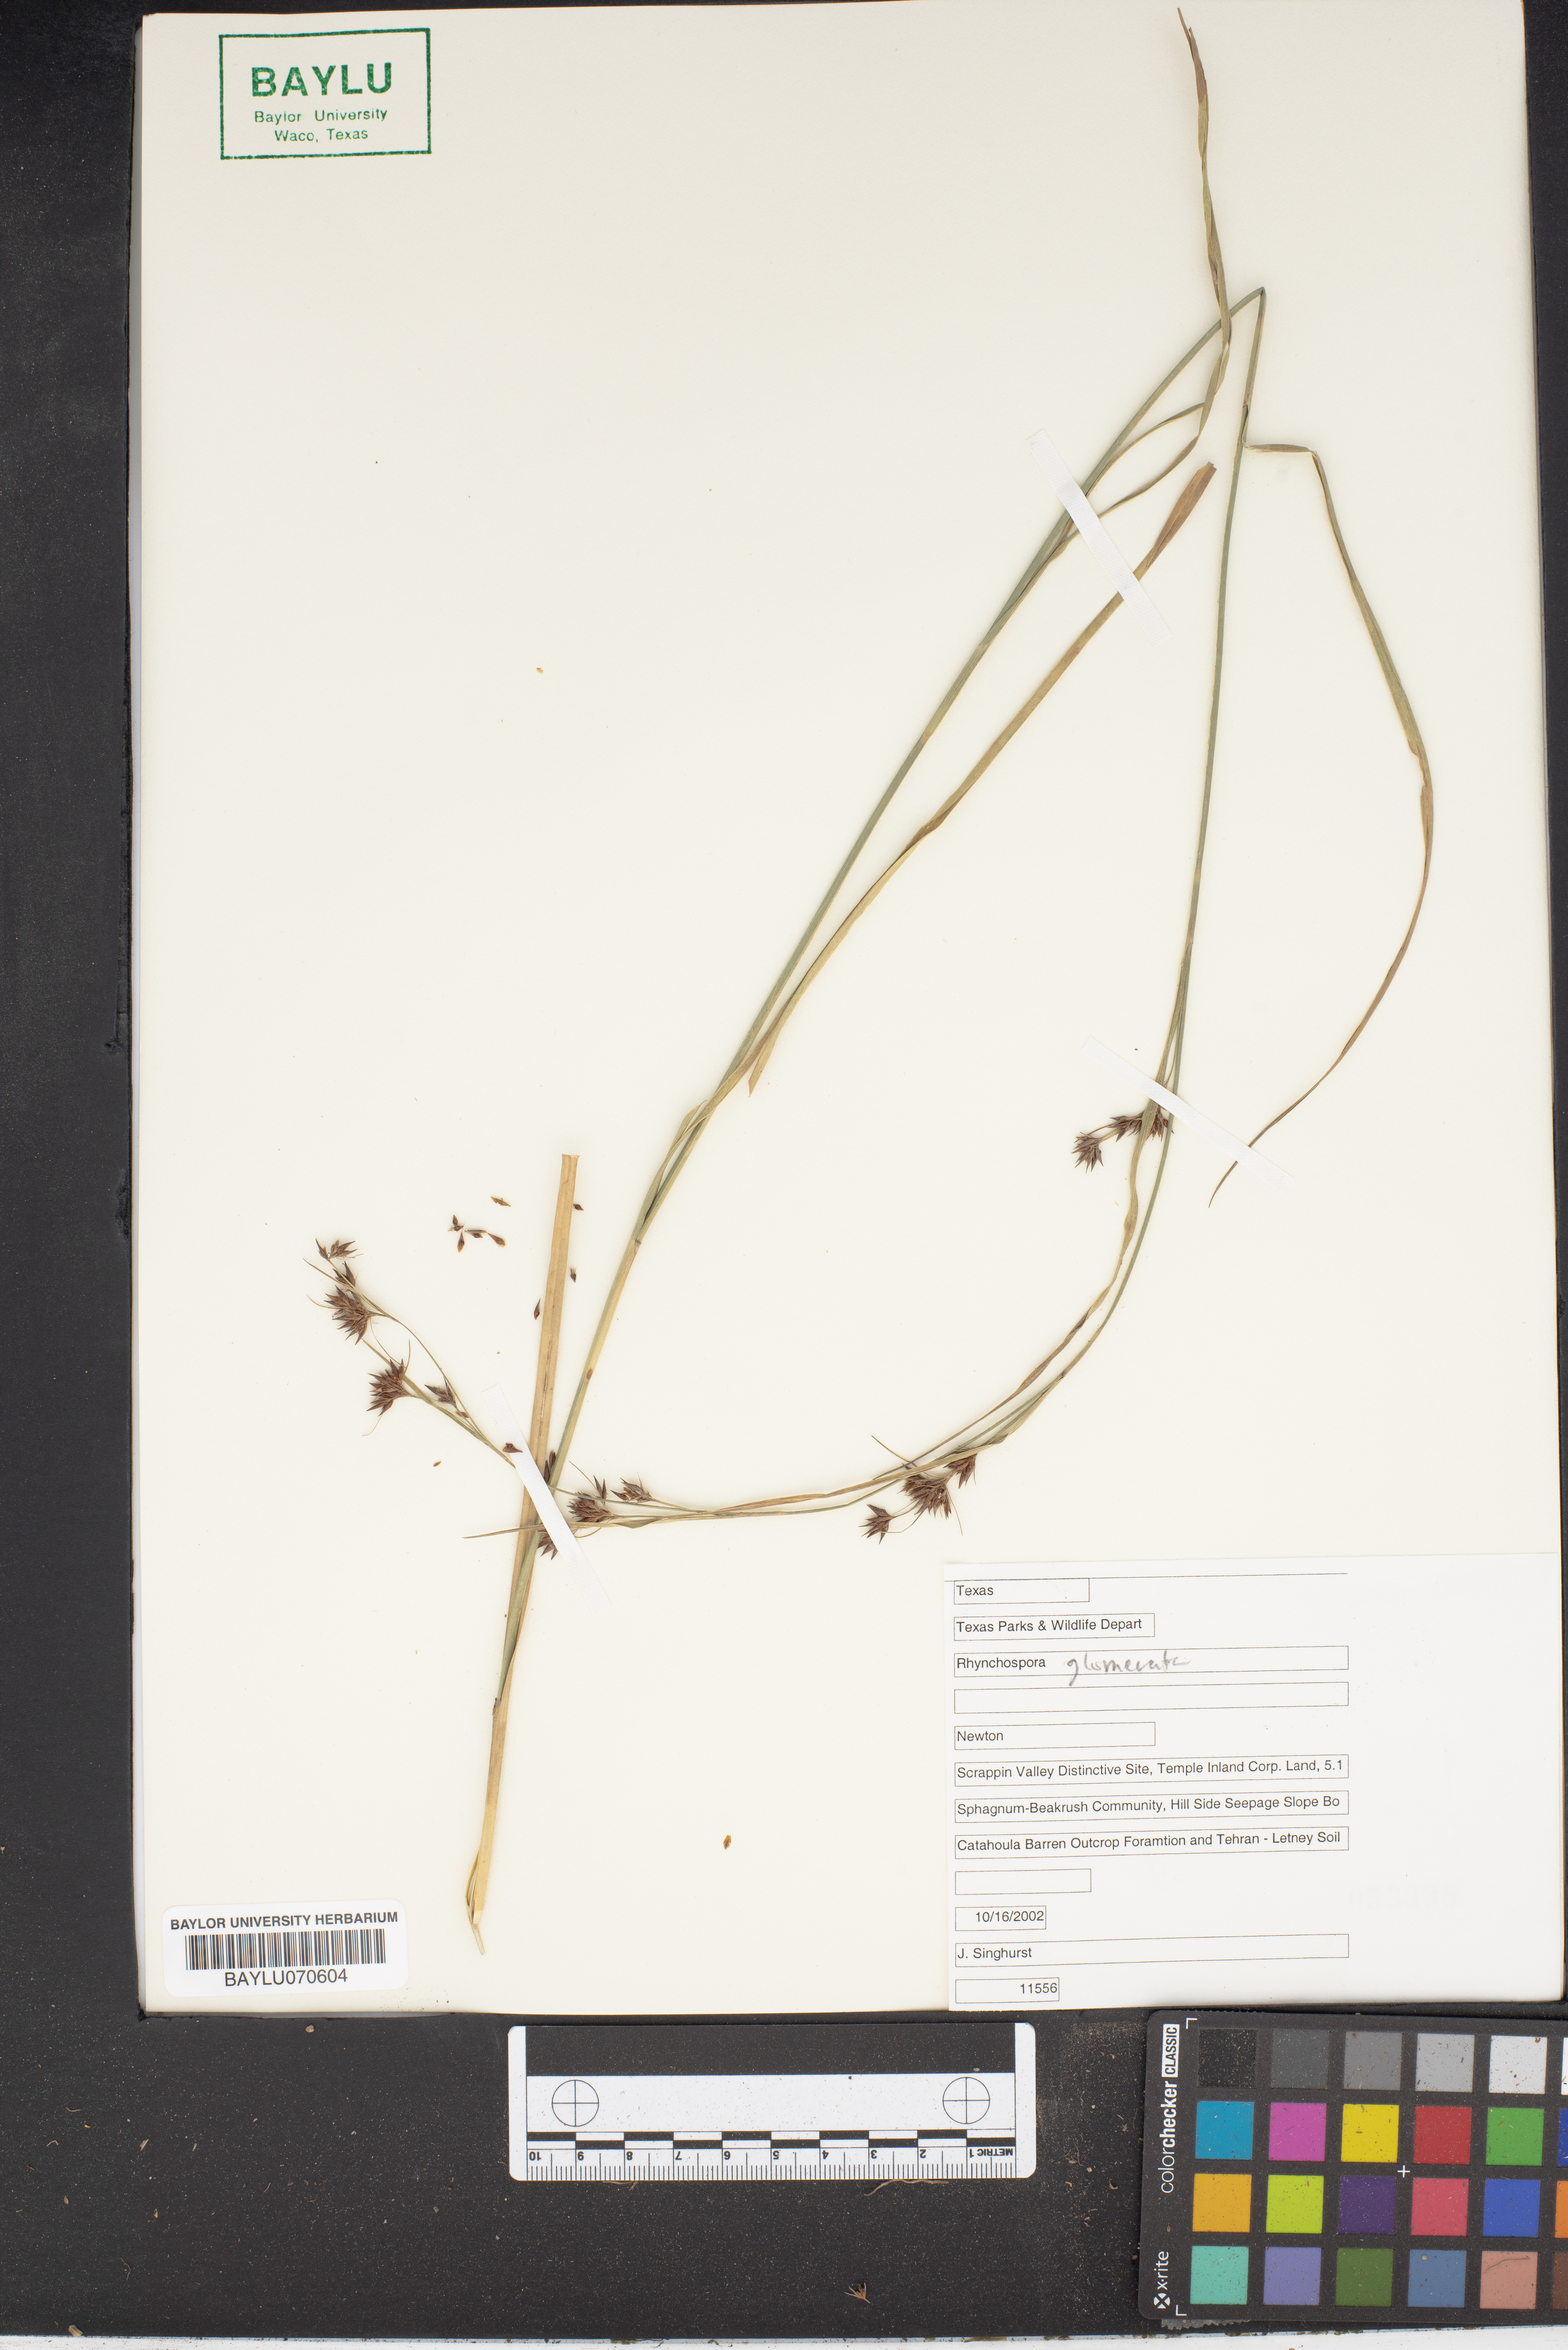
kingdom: Plantae
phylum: Tracheophyta
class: Liliopsida
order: Poales
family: Cyperaceae
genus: Rhynchospora
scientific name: Rhynchospora glomerata
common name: Cluster beak sedge
